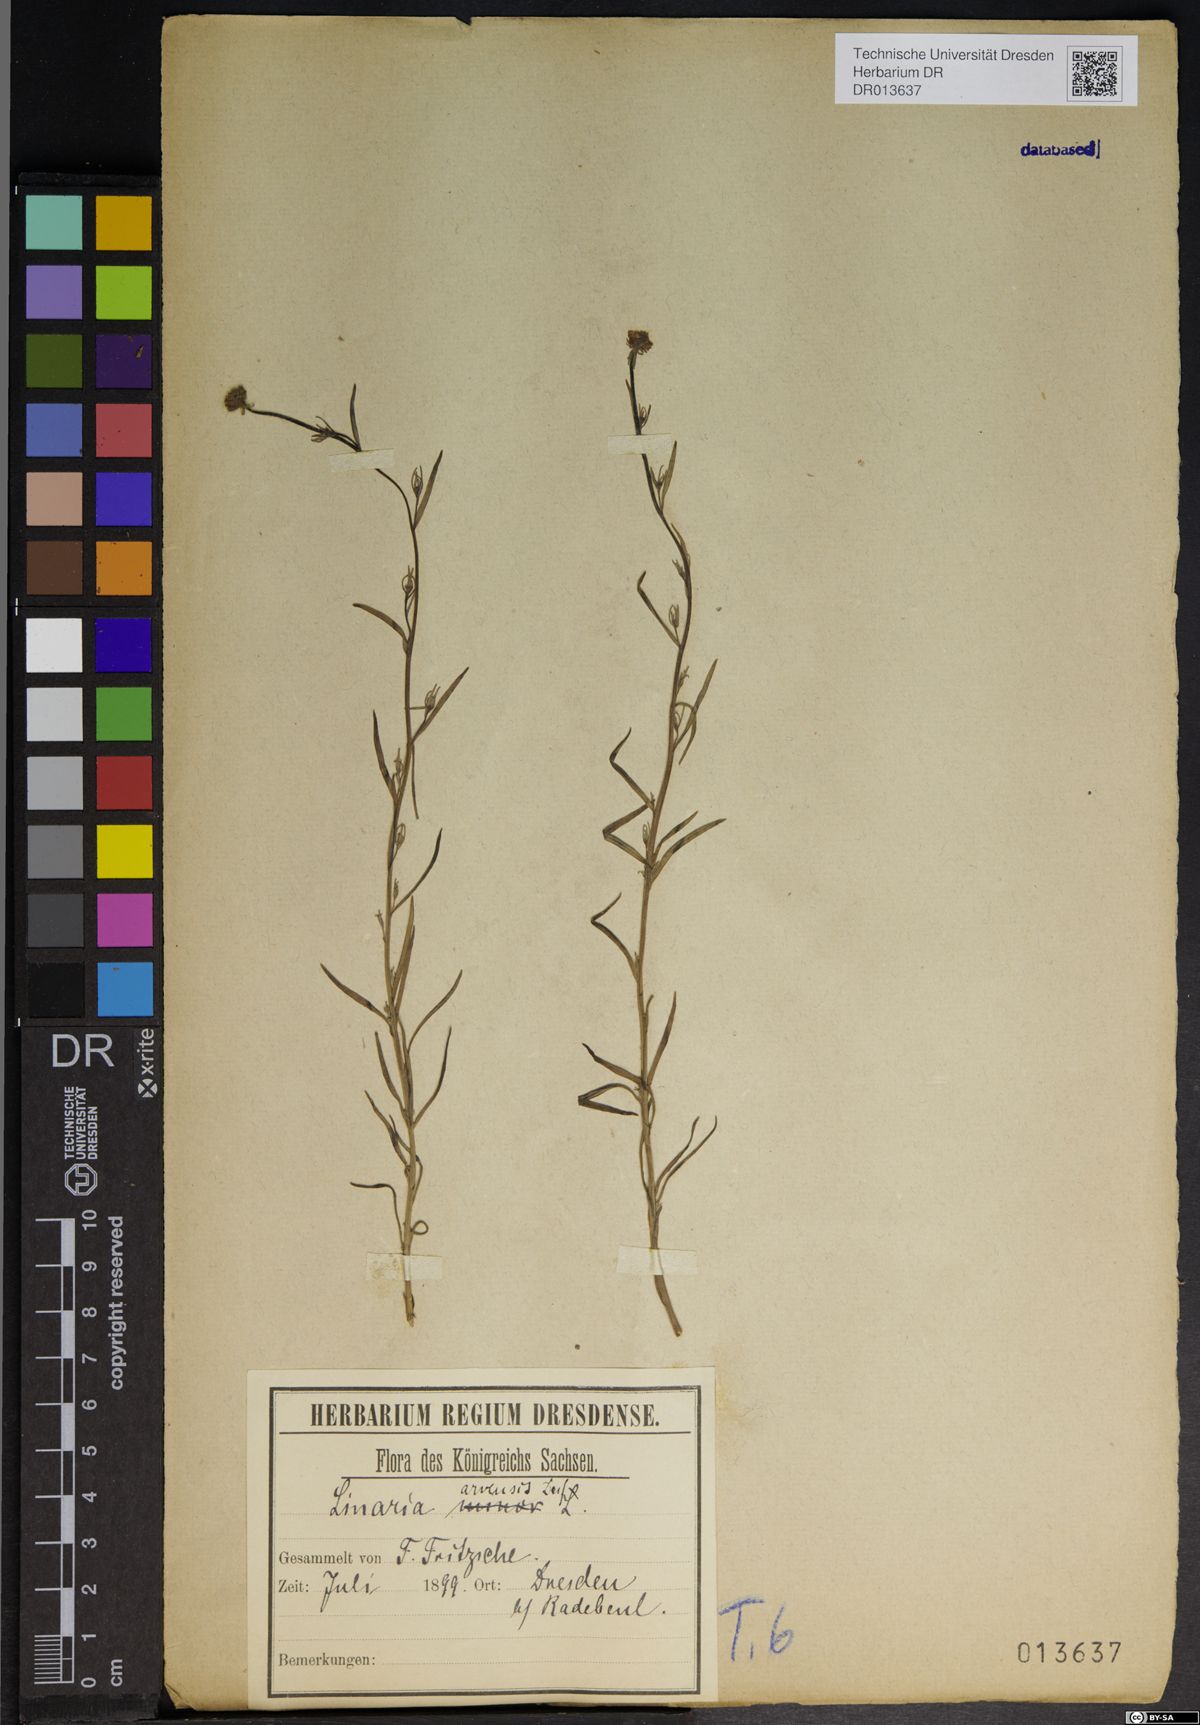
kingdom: Plantae
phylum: Tracheophyta
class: Magnoliopsida
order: Lamiales
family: Plantaginaceae
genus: Linaria
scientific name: Linaria arvensis
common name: Corn toadflax
